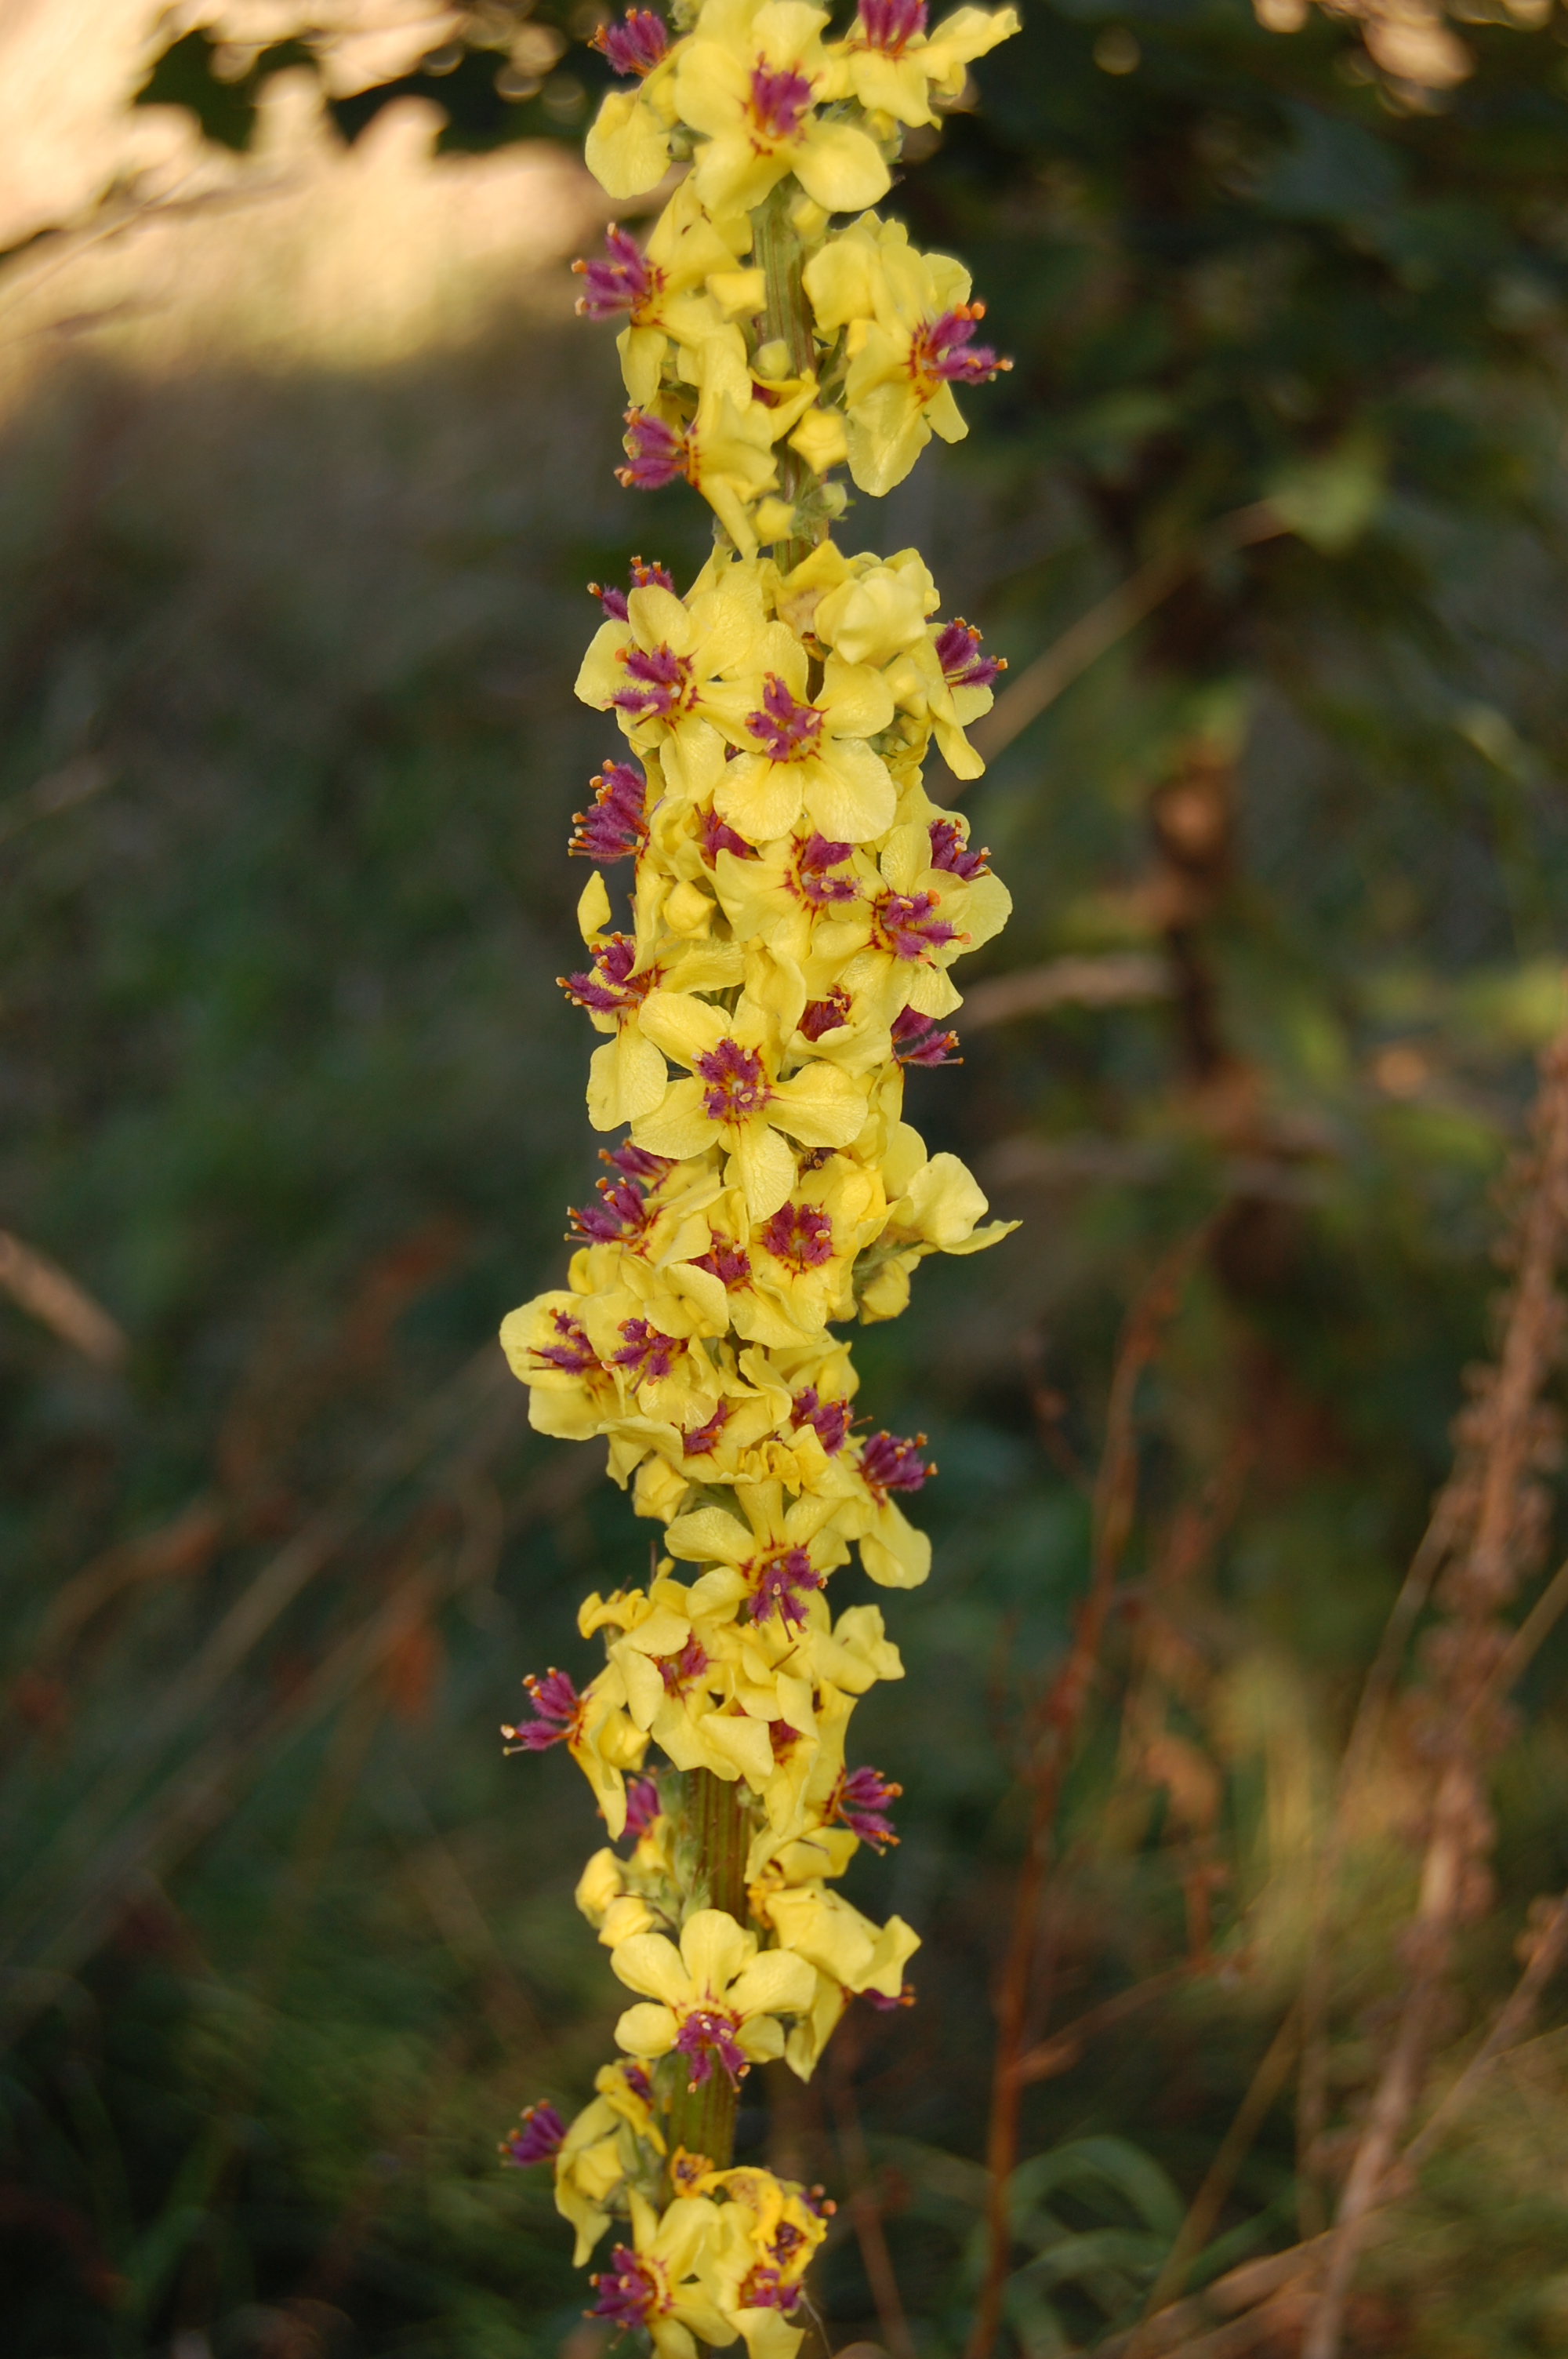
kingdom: Plantae
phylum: Tracheophyta
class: Magnoliopsida
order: Lamiales
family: Scrophulariaceae
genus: Verbascum
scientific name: Verbascum nigrum
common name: Dark mullein
